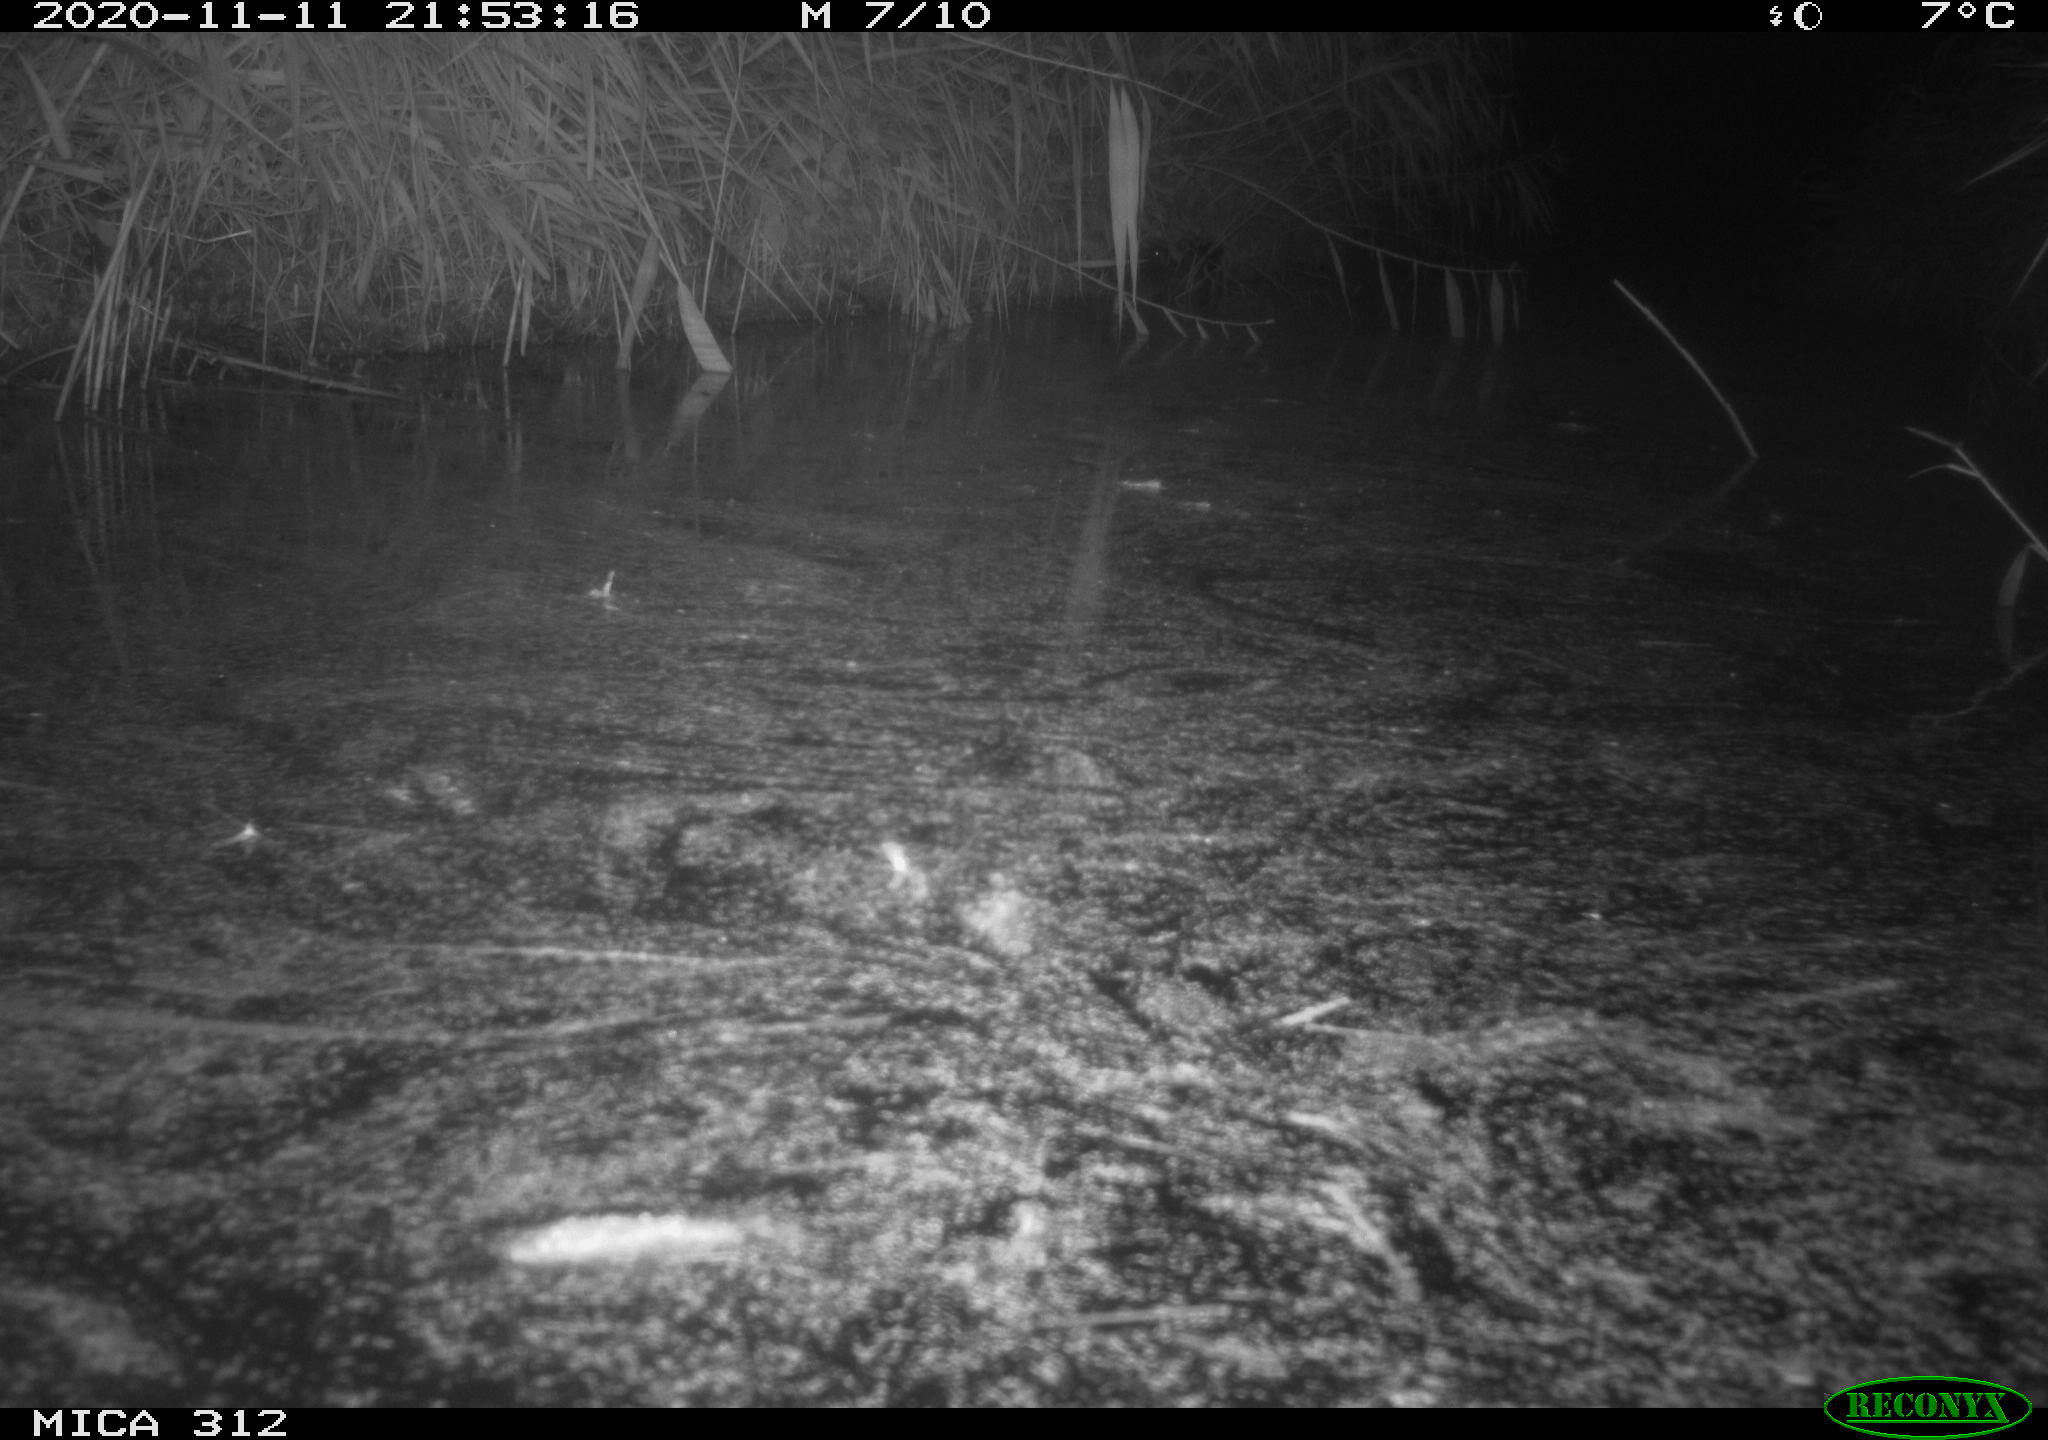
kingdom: Animalia
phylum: Chordata
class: Mammalia
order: Rodentia
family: Muridae
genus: Rattus
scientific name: Rattus norvegicus
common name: Brown rat
